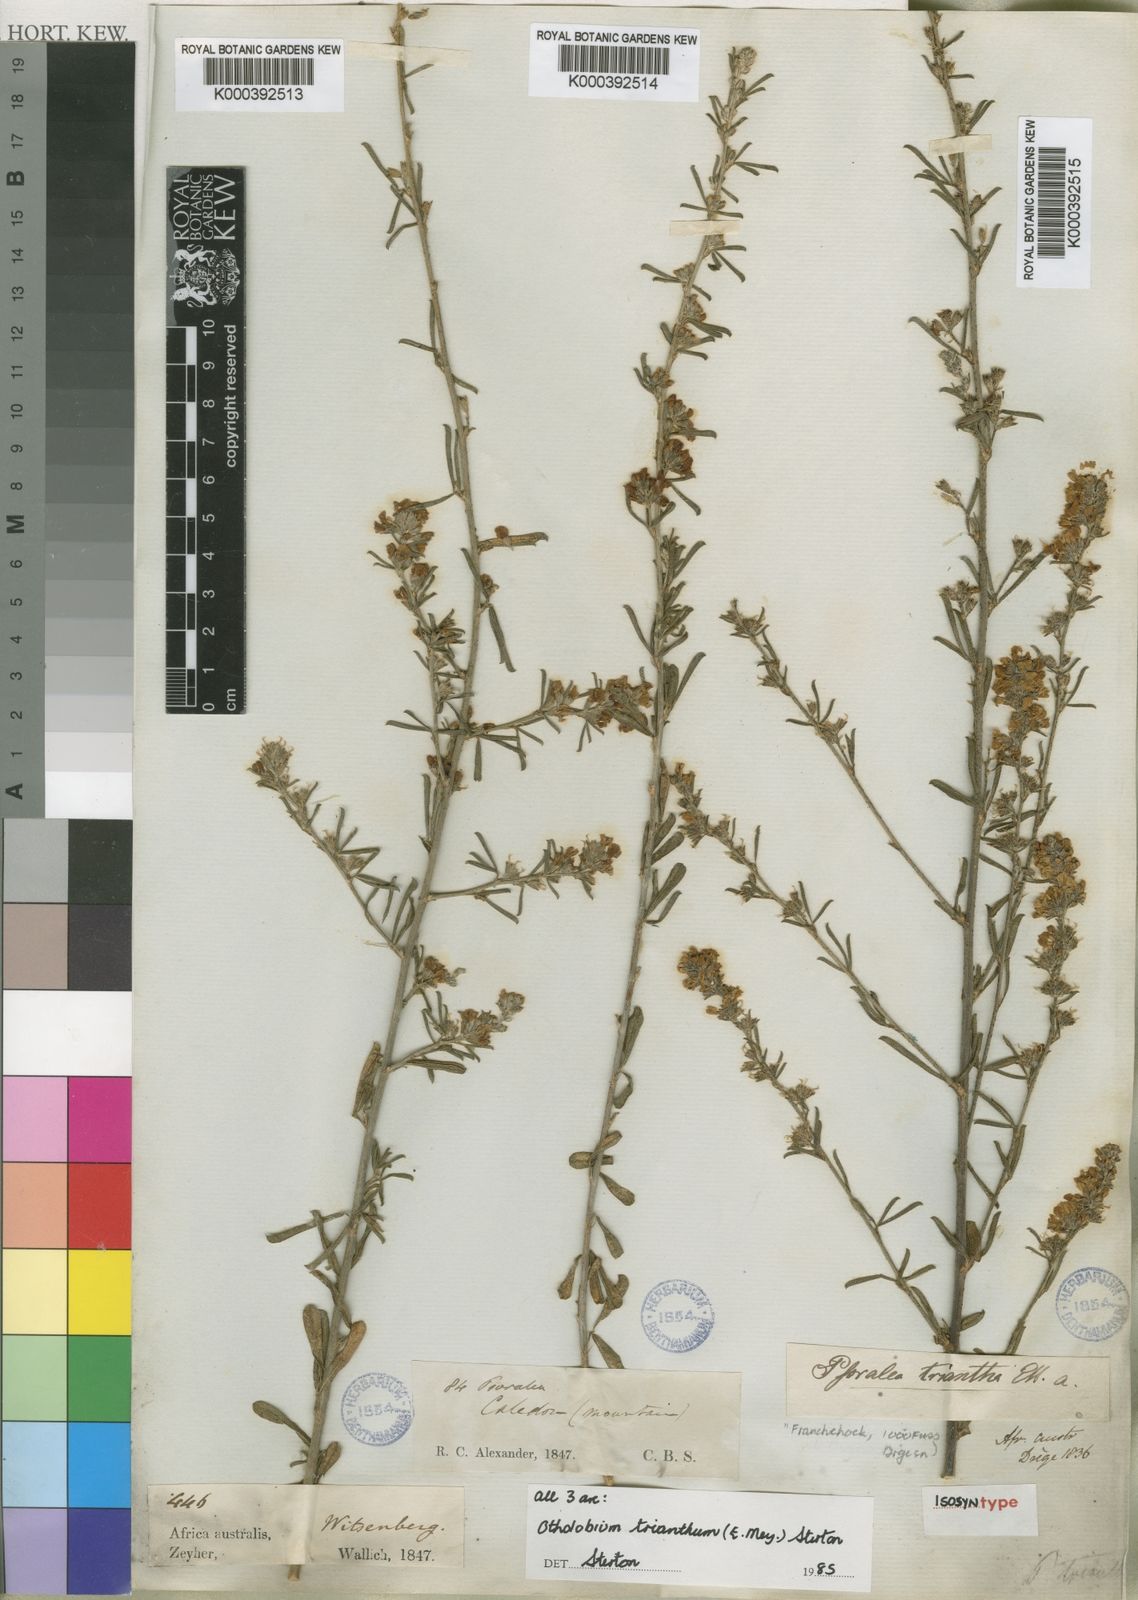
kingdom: Plantae
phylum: Tracheophyta
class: Magnoliopsida
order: Fabales
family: Fabaceae
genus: Psoralea
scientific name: Psoralea triantha
